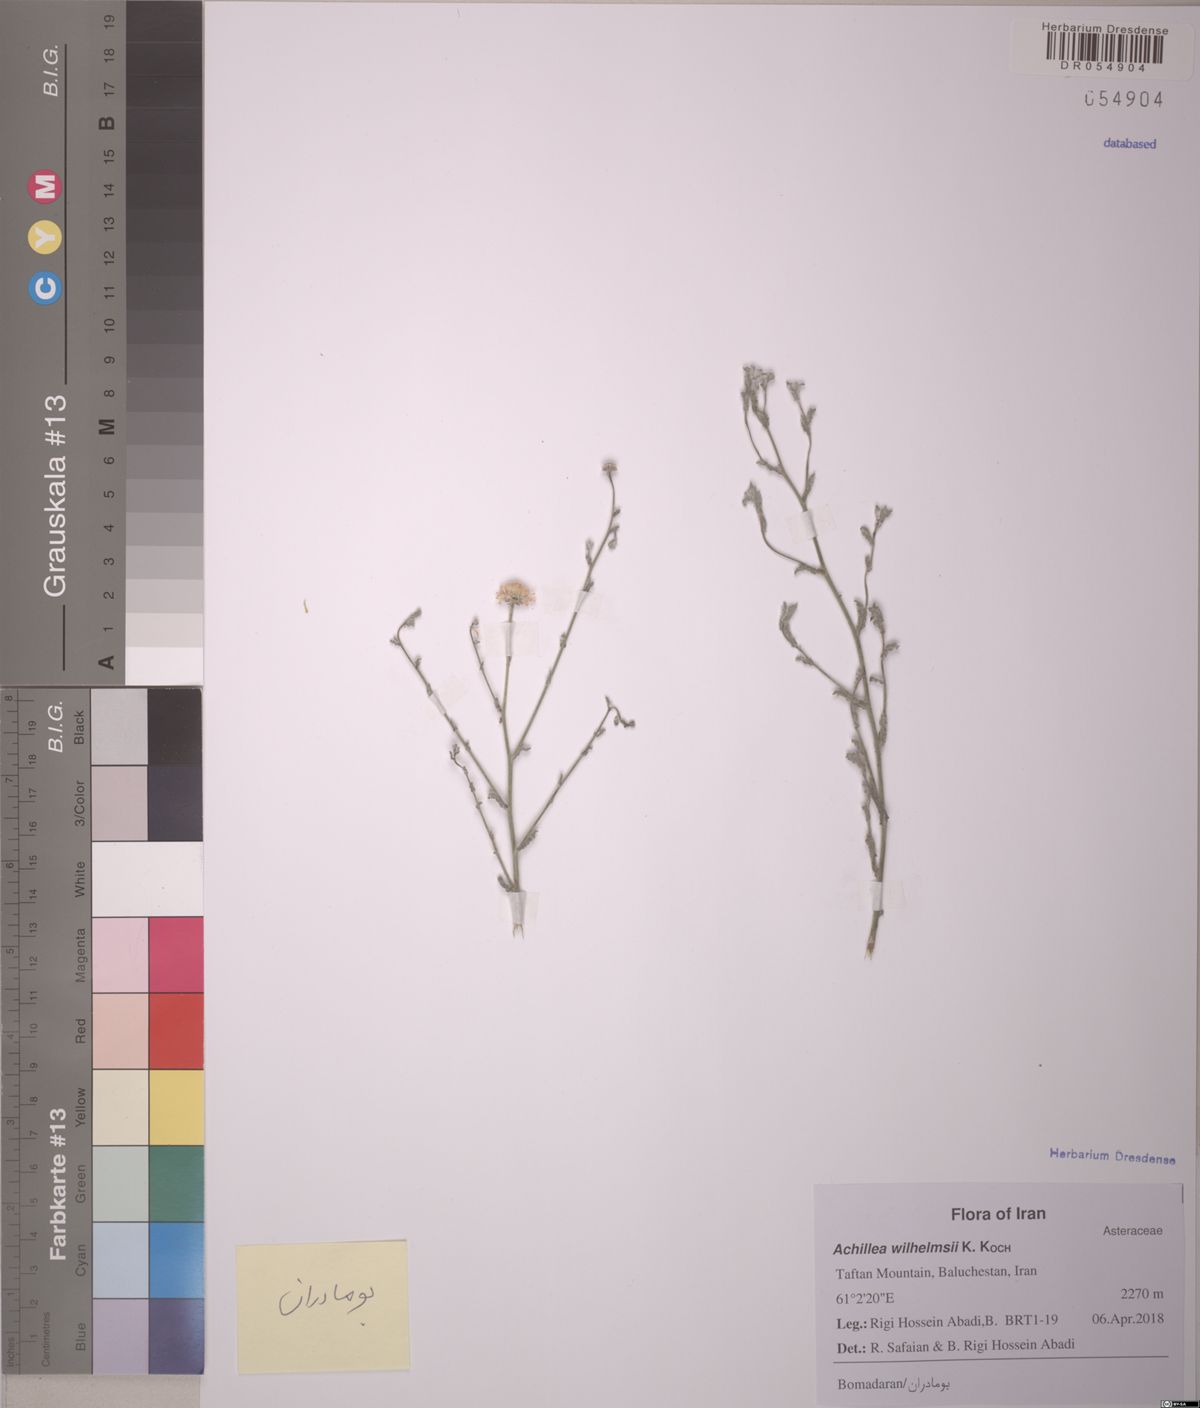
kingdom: Plantae
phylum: Tracheophyta
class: Magnoliopsida
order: Asterales
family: Asteraceae
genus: Pulicaria
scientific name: Pulicaria undulata
